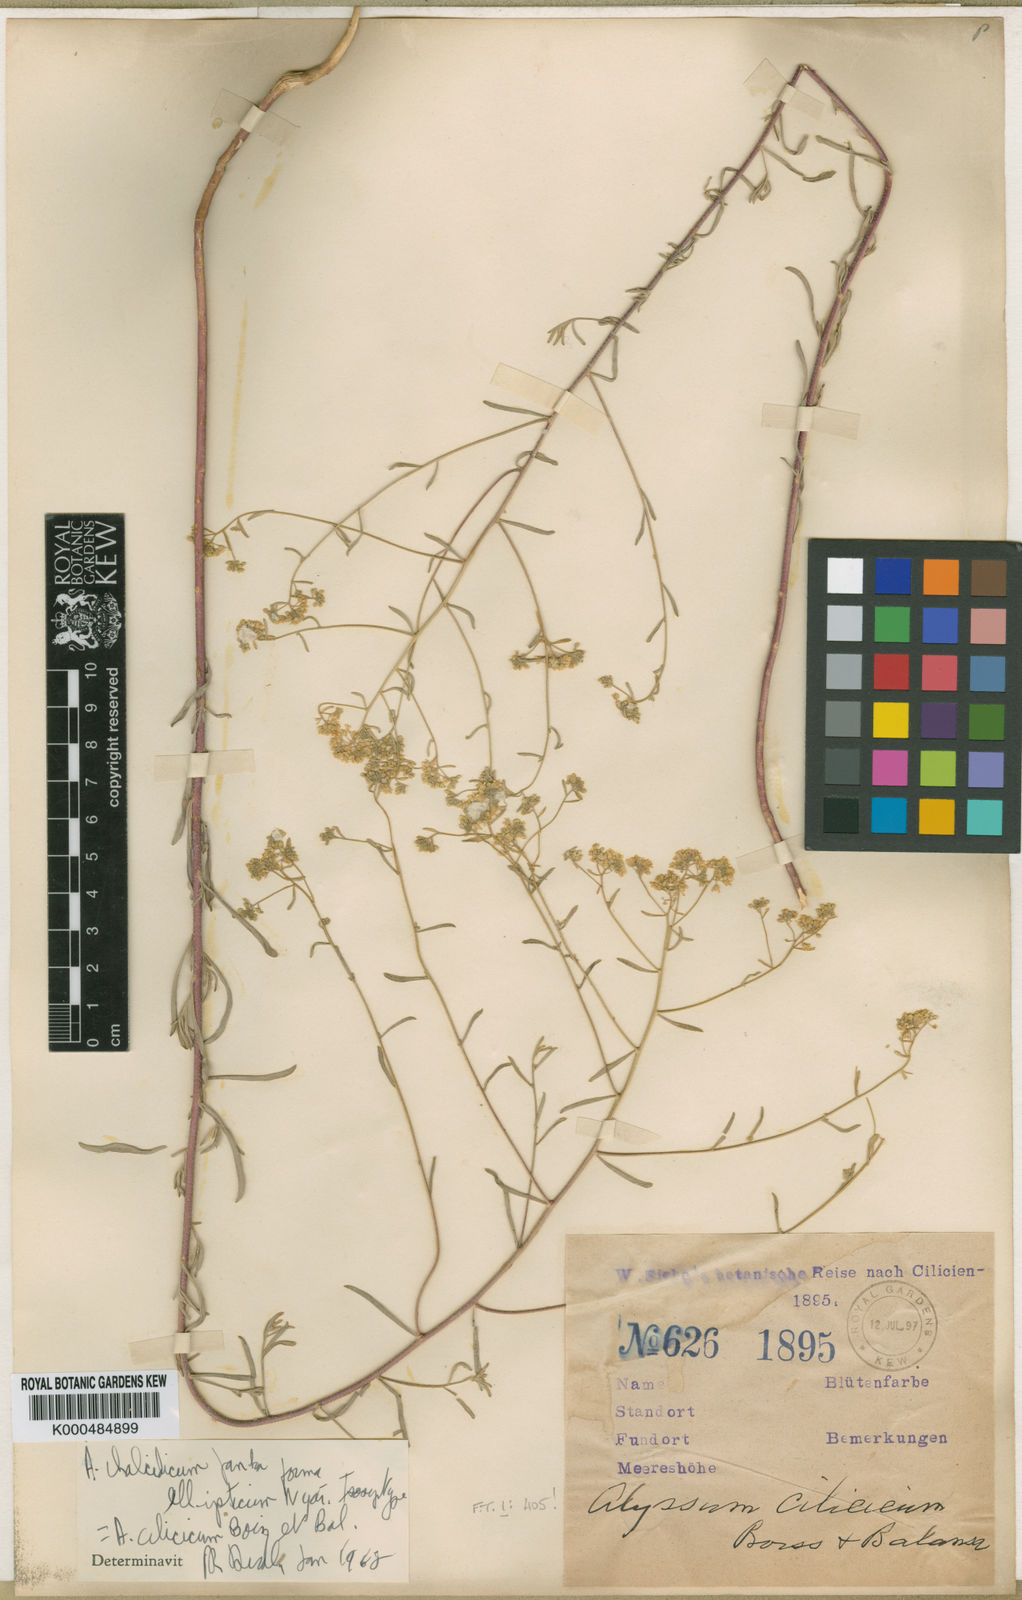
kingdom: Plantae
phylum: Tracheophyta
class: Magnoliopsida
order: Brassicales
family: Brassicaceae
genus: Odontarrhena
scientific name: Odontarrhena cilicica
